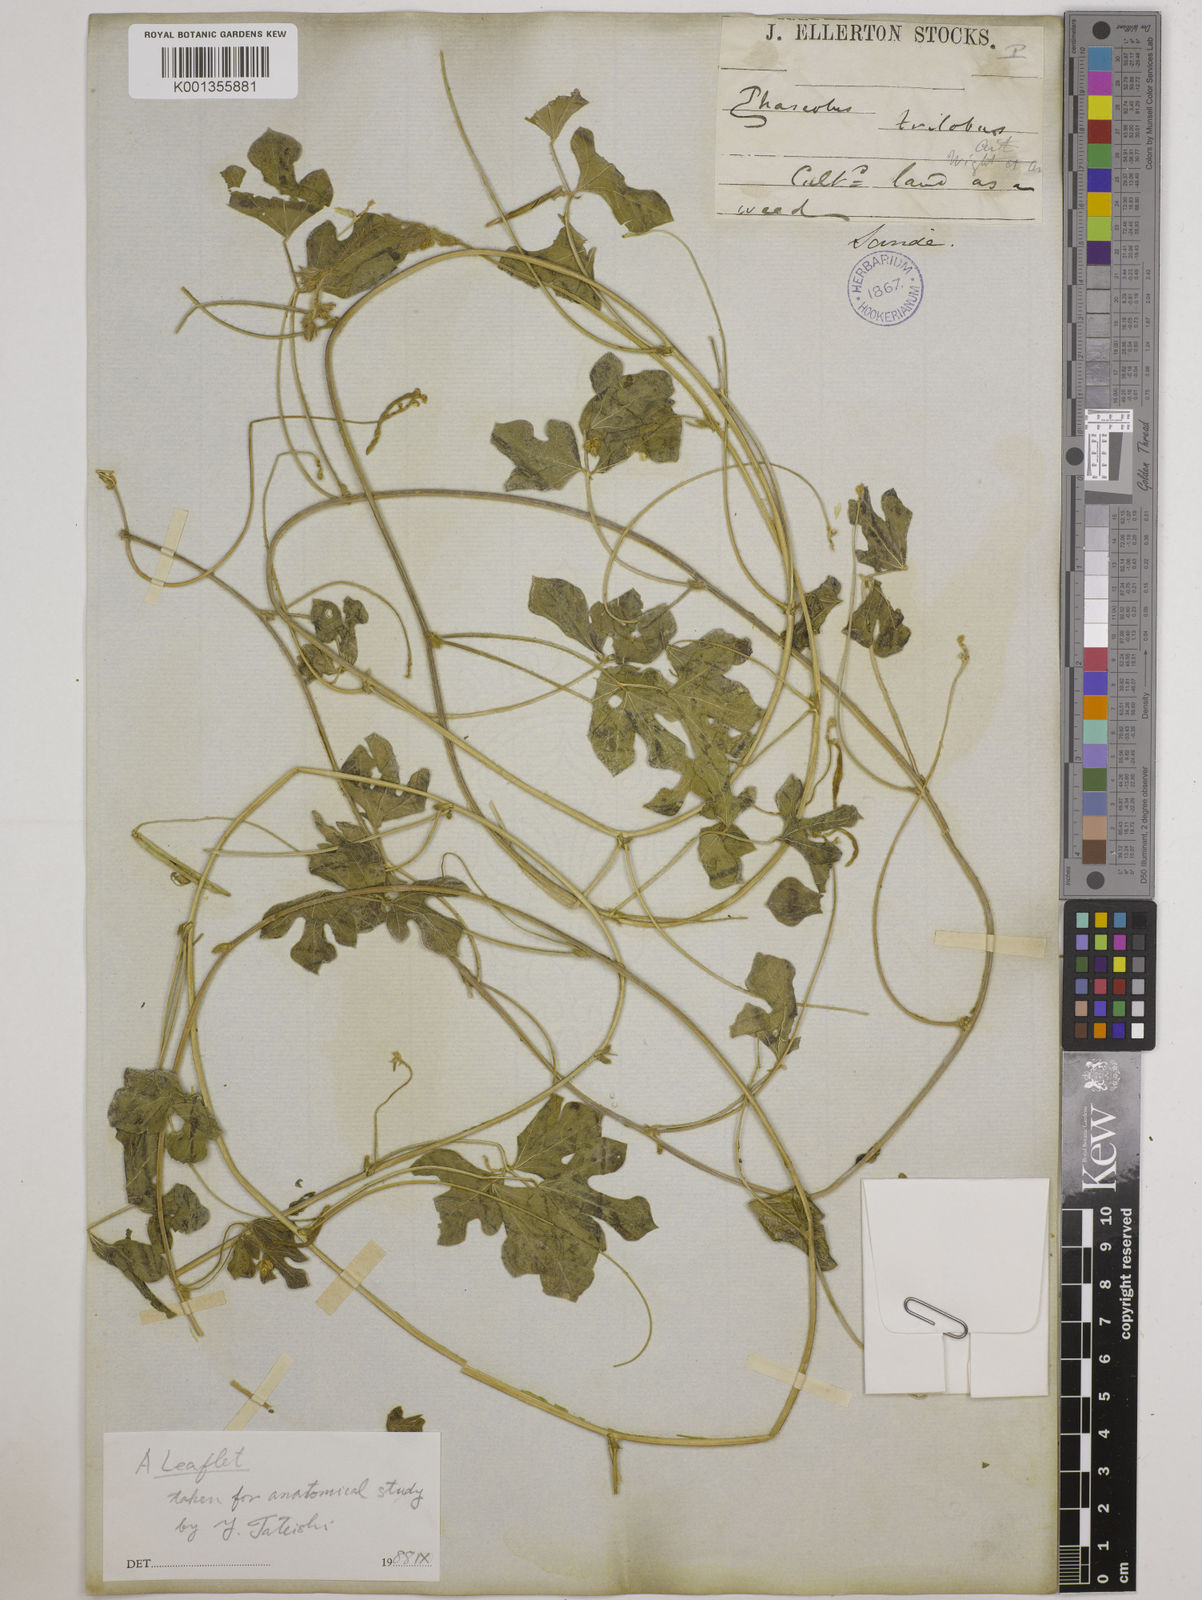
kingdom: Plantae
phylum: Tracheophyta
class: Magnoliopsida
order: Fabales
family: Fabaceae
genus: Vigna
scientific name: Vigna trilobata
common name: Jungli-bean
